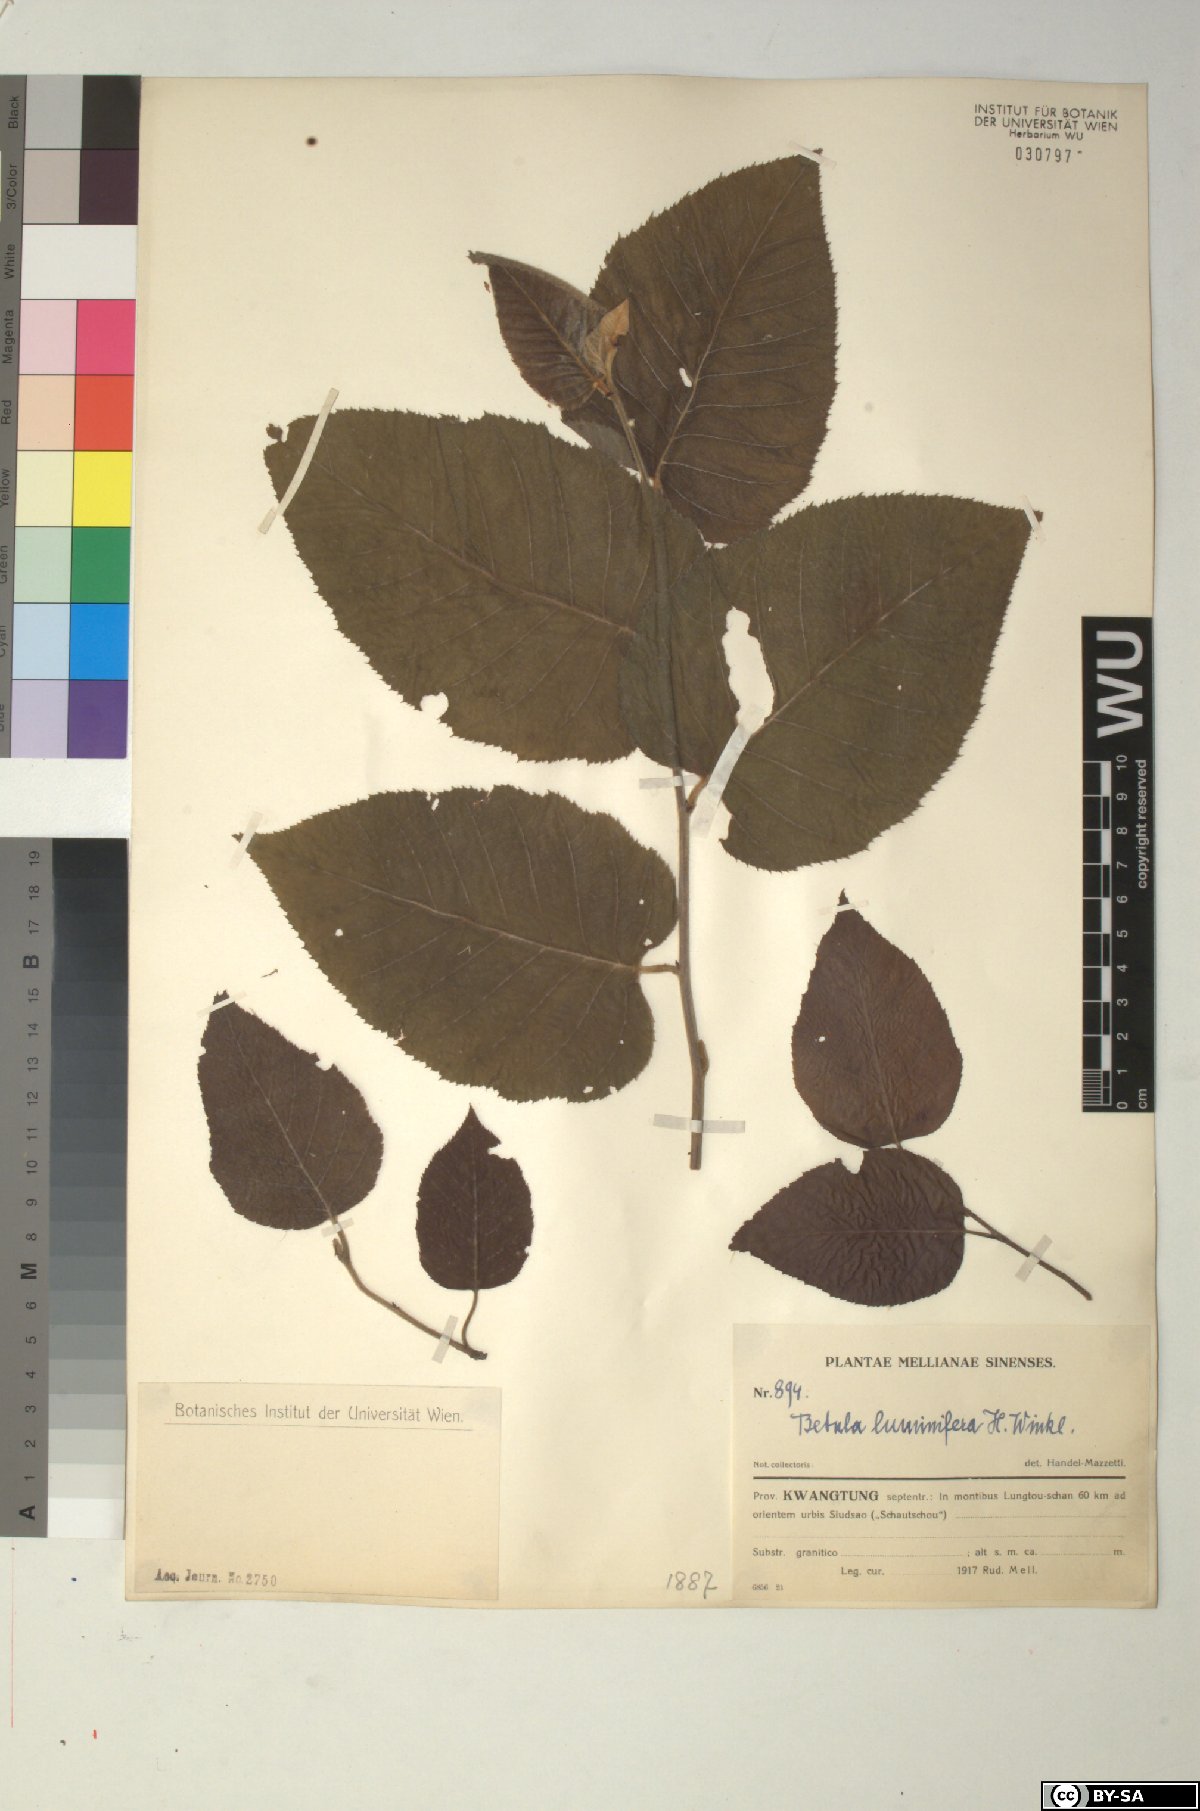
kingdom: Plantae
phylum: Tracheophyta
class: Magnoliopsida
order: Fagales
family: Betulaceae
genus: Betula
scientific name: Betula luminifera
